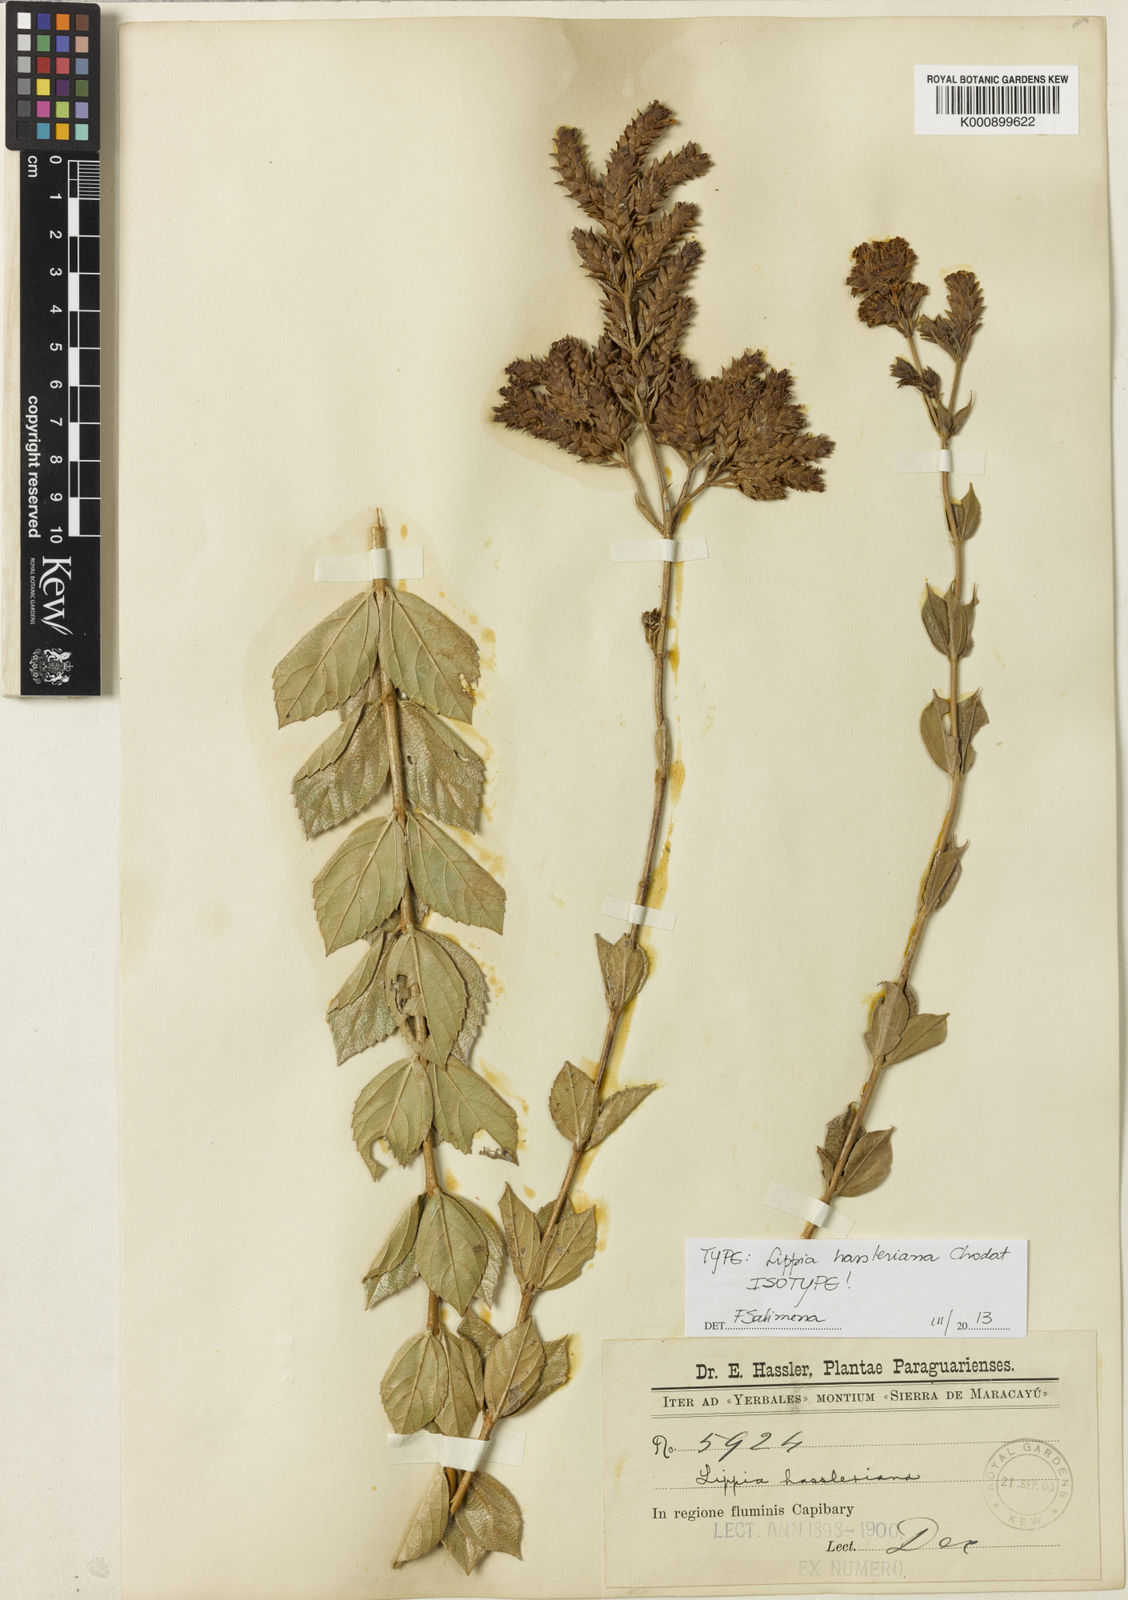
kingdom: Plantae
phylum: Tracheophyta
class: Magnoliopsida
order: Lamiales
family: Verbenaceae
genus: Lippia
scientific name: Lippia hassleriana
